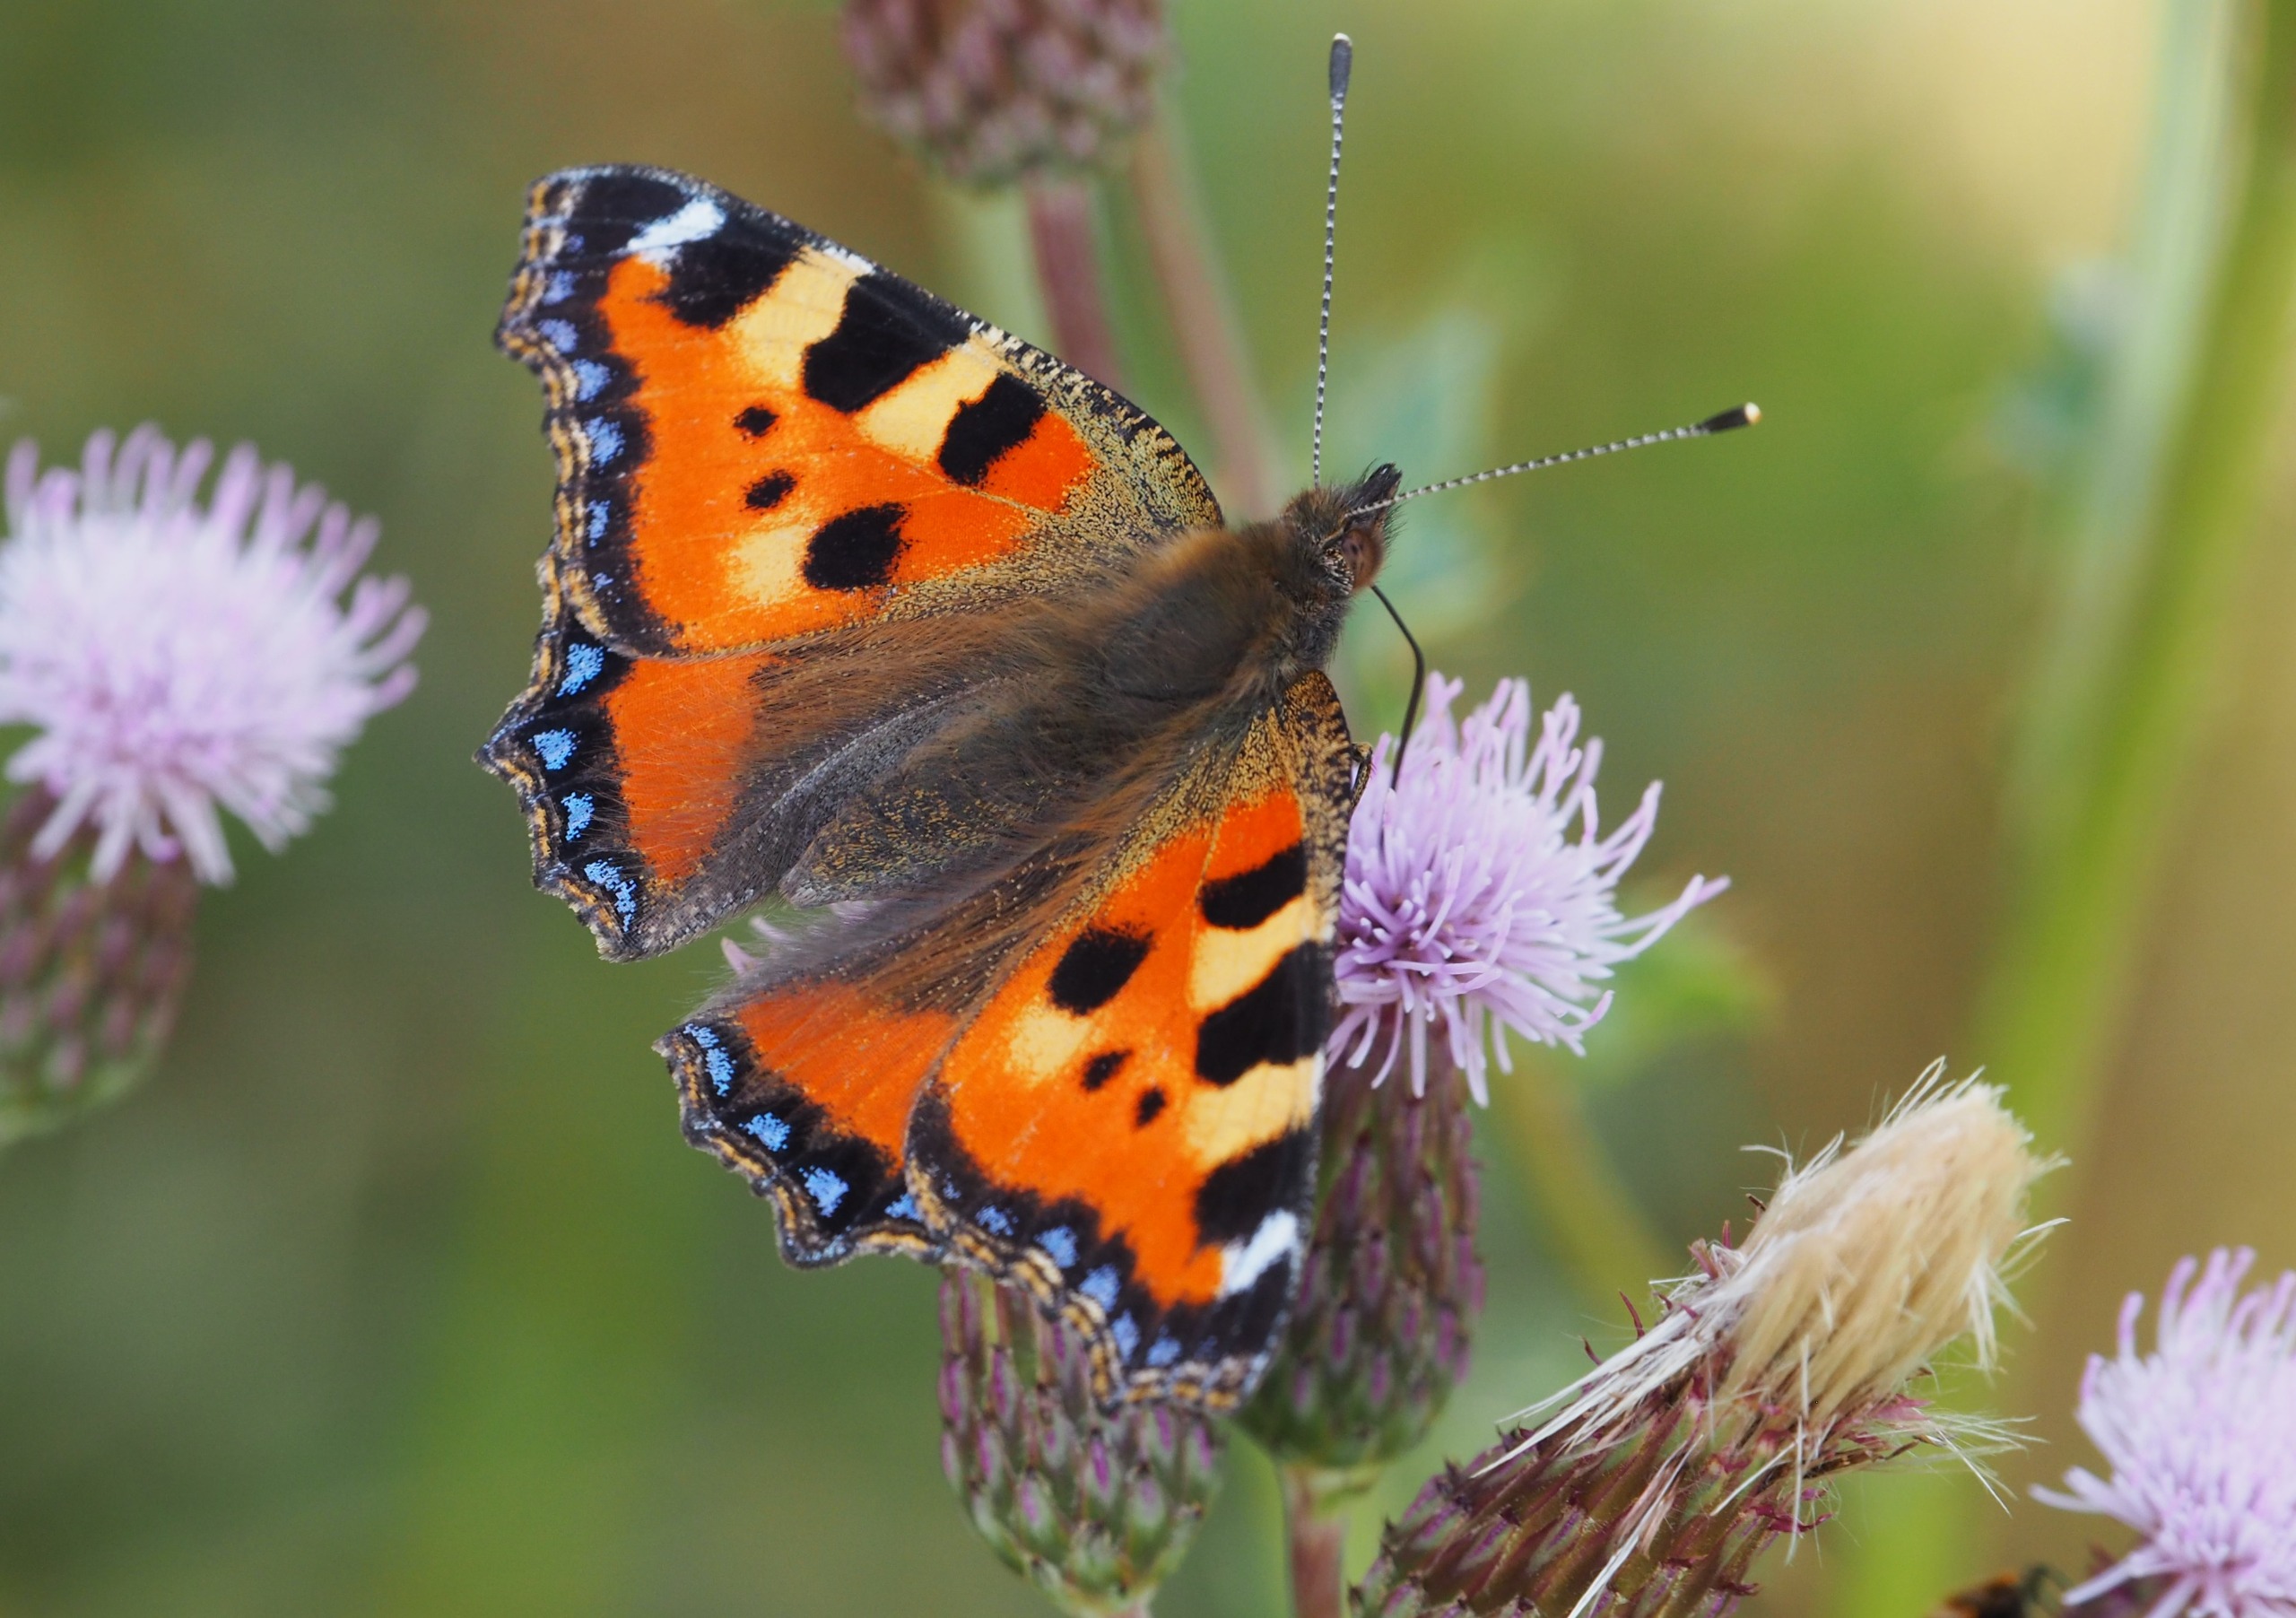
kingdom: Animalia
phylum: Arthropoda
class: Insecta
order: Lepidoptera
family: Nymphalidae
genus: Aglais
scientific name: Aglais urticae
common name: Nældens takvinge
